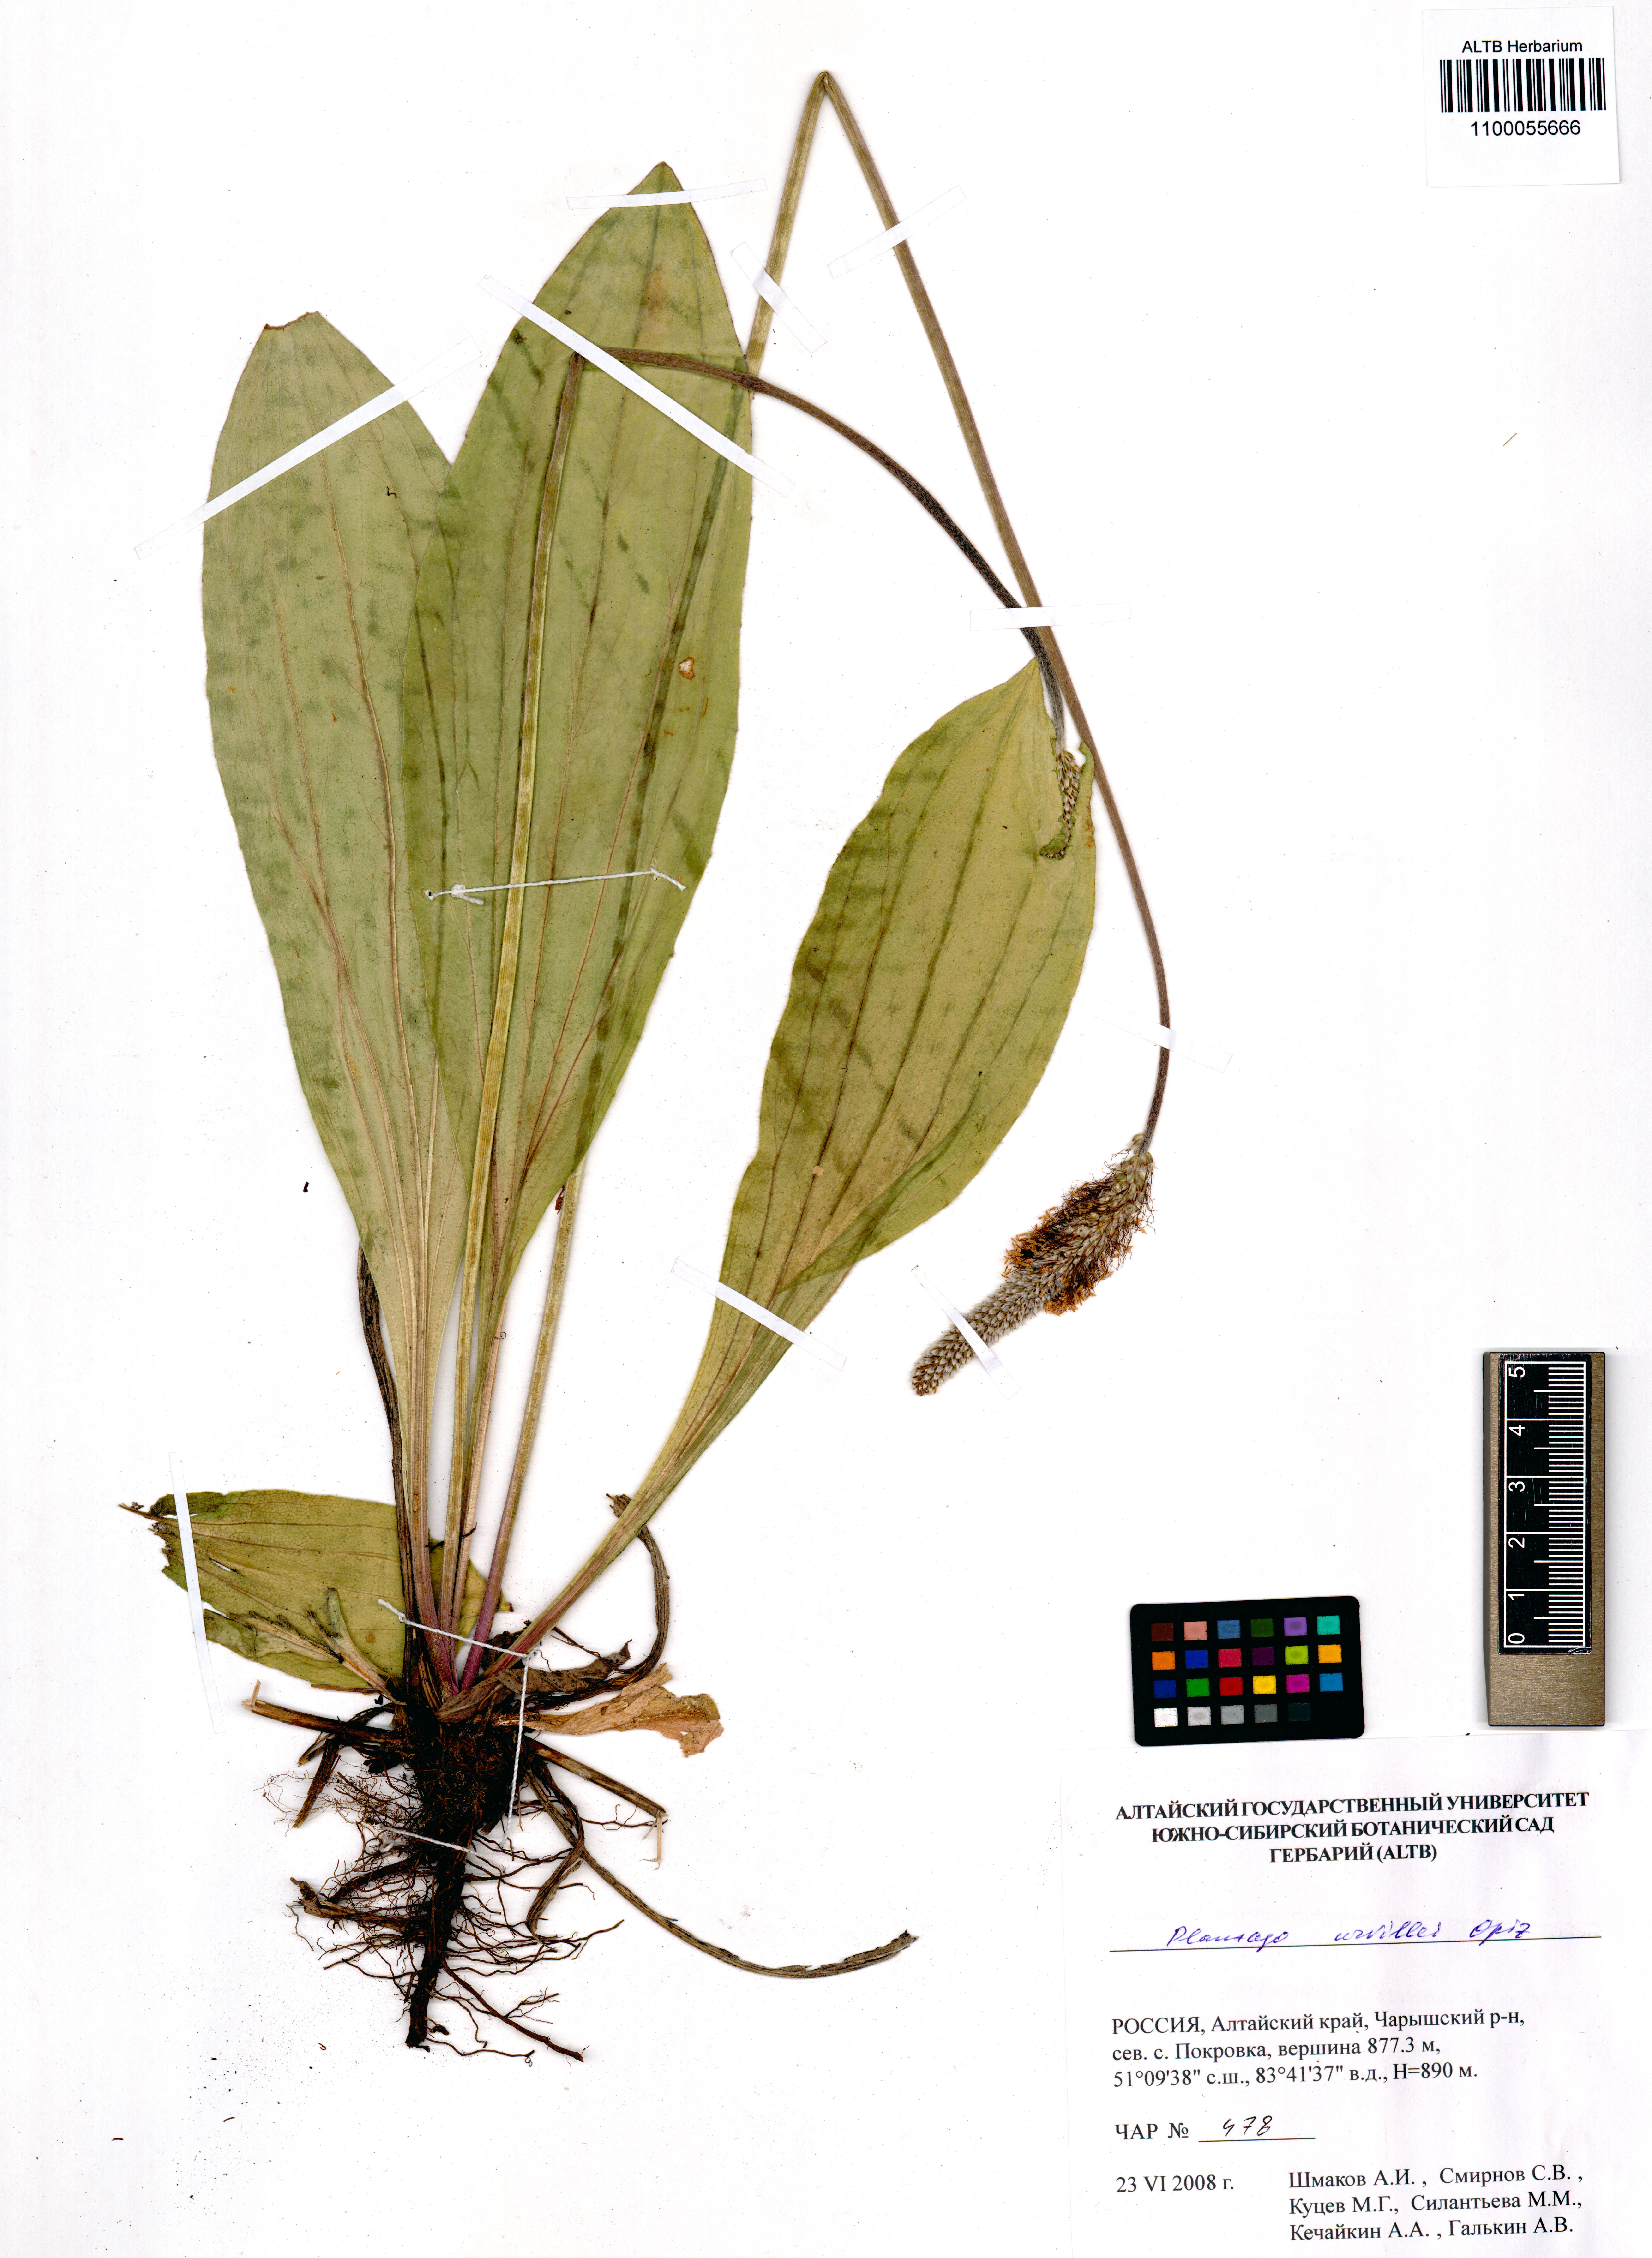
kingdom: Plantae
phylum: Tracheophyta
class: Magnoliopsida
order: Lamiales
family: Plantaginaceae
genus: Plantago
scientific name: Plantago urvillei
